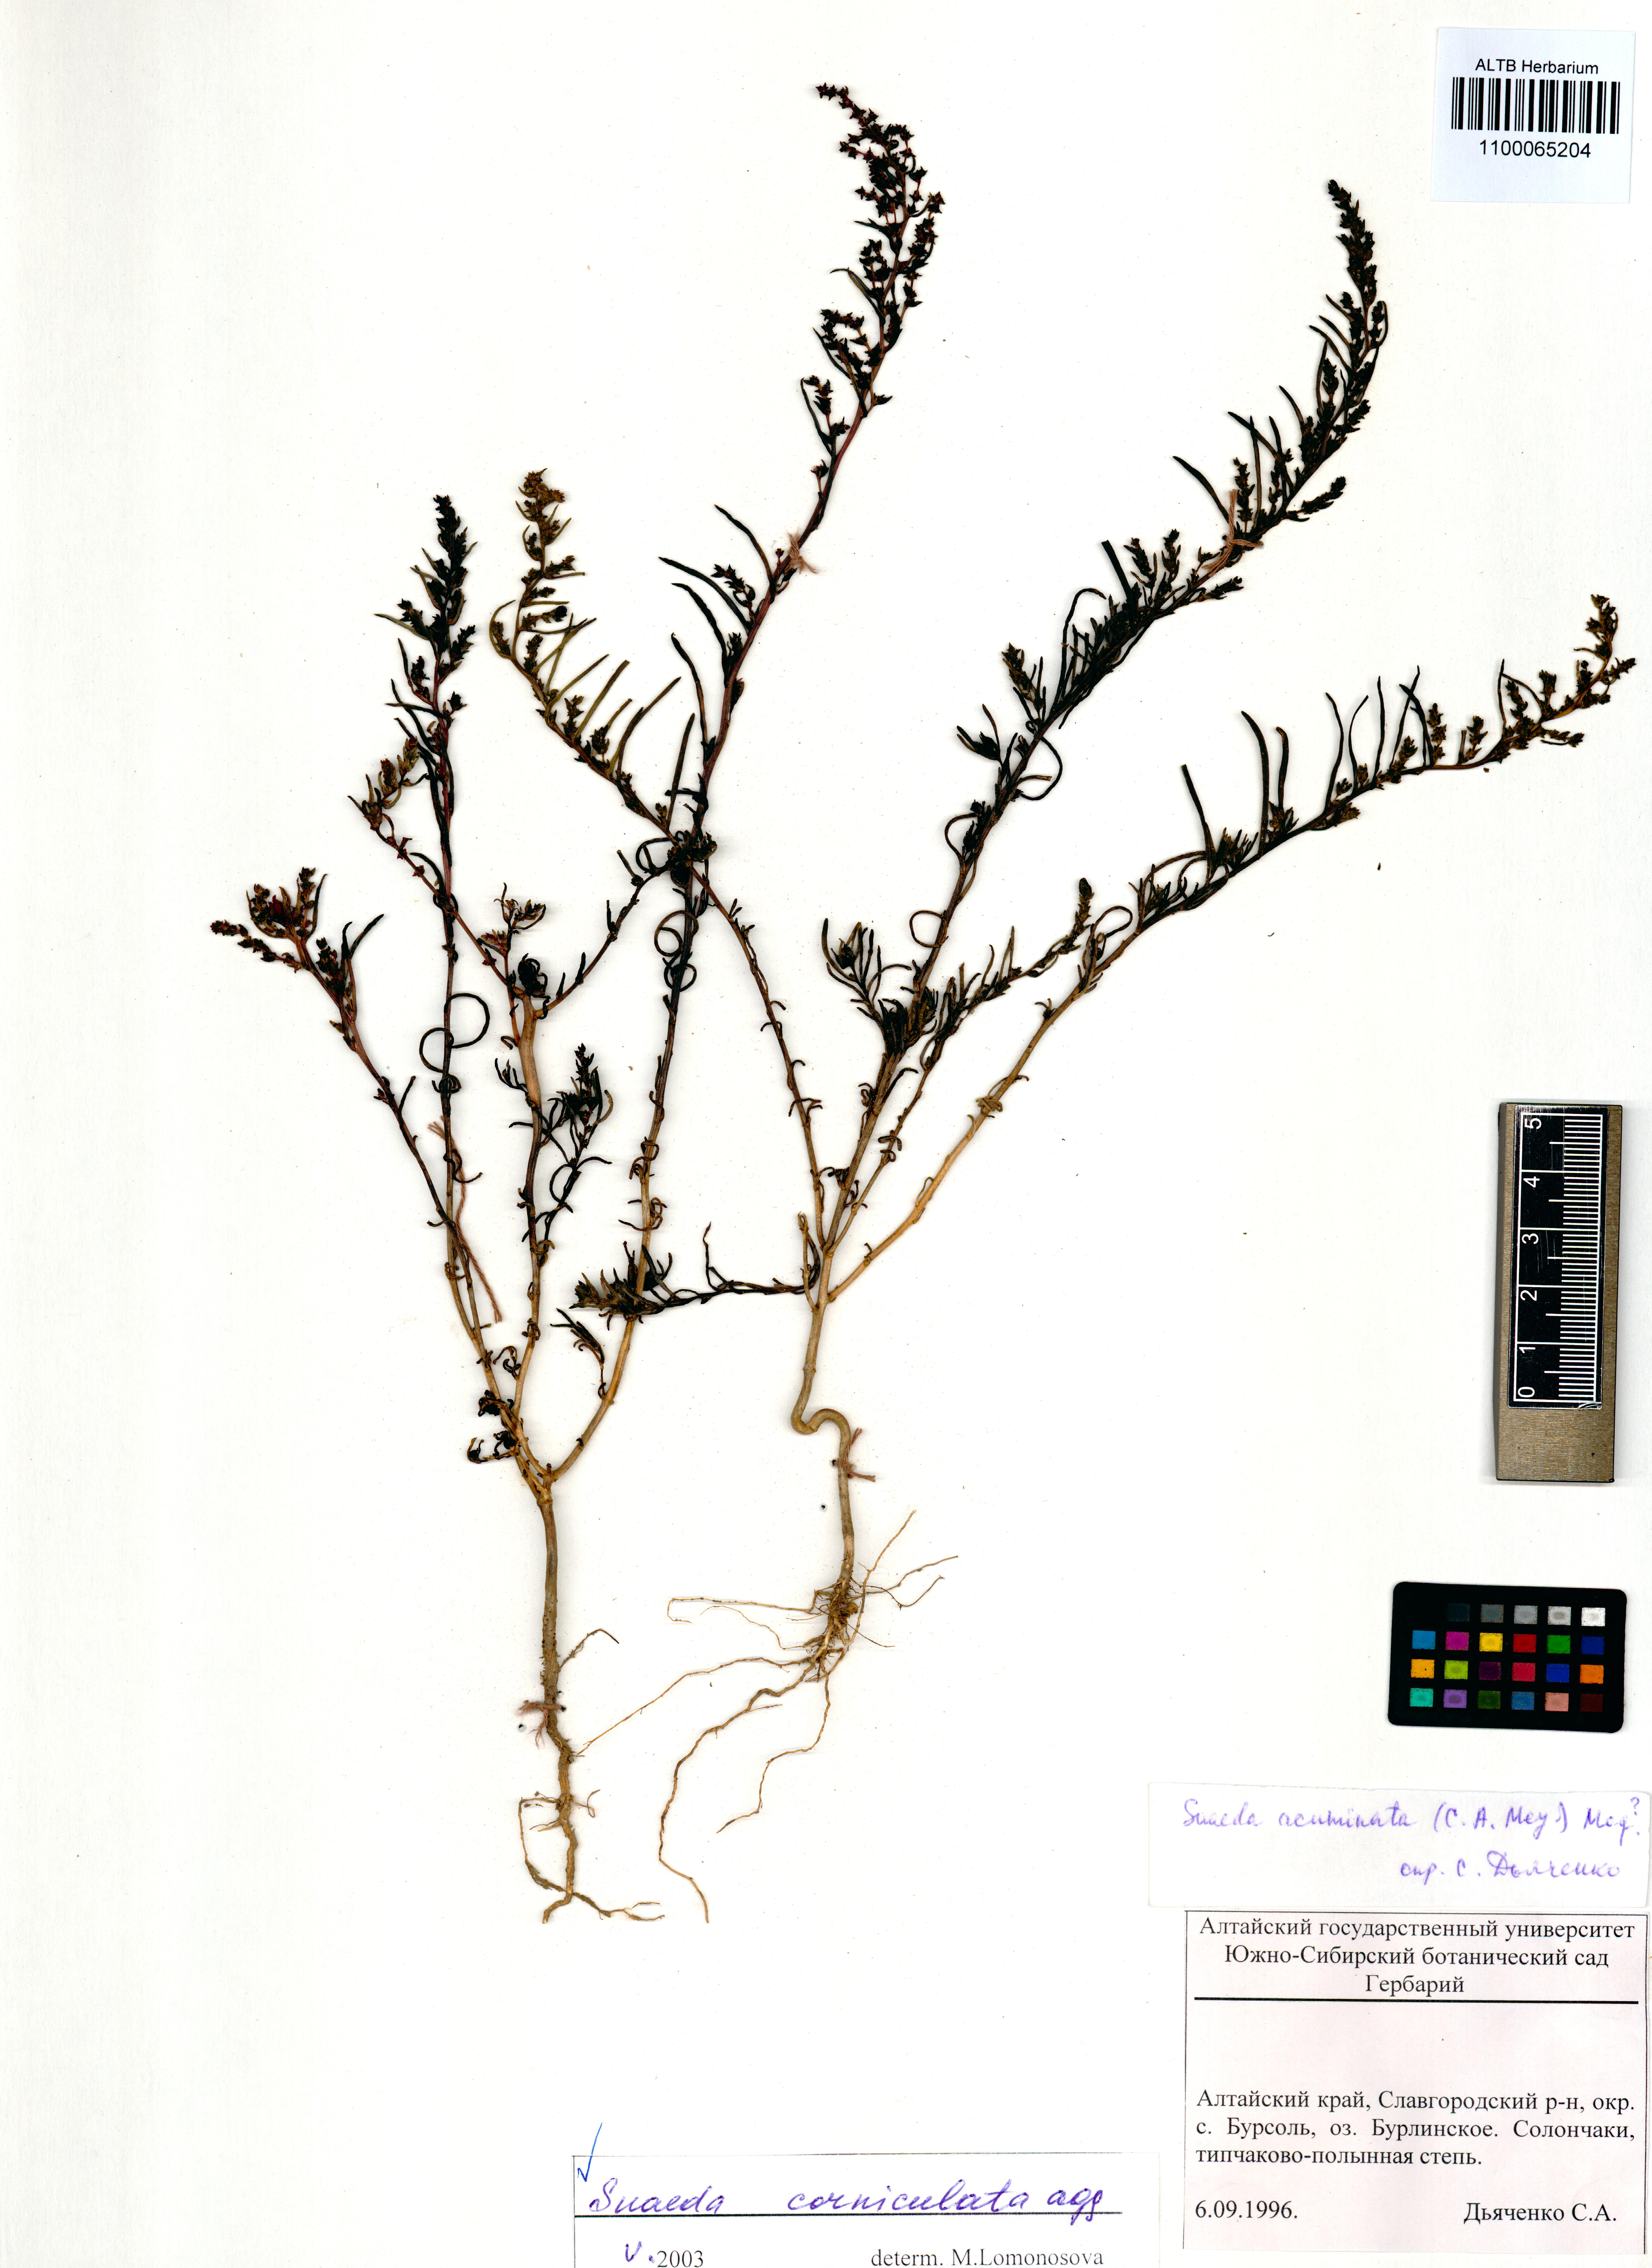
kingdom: Plantae
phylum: Tracheophyta
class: Magnoliopsida
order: Caryophyllales
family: Amaranthaceae
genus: Suaeda
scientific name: Suaeda corniculata
